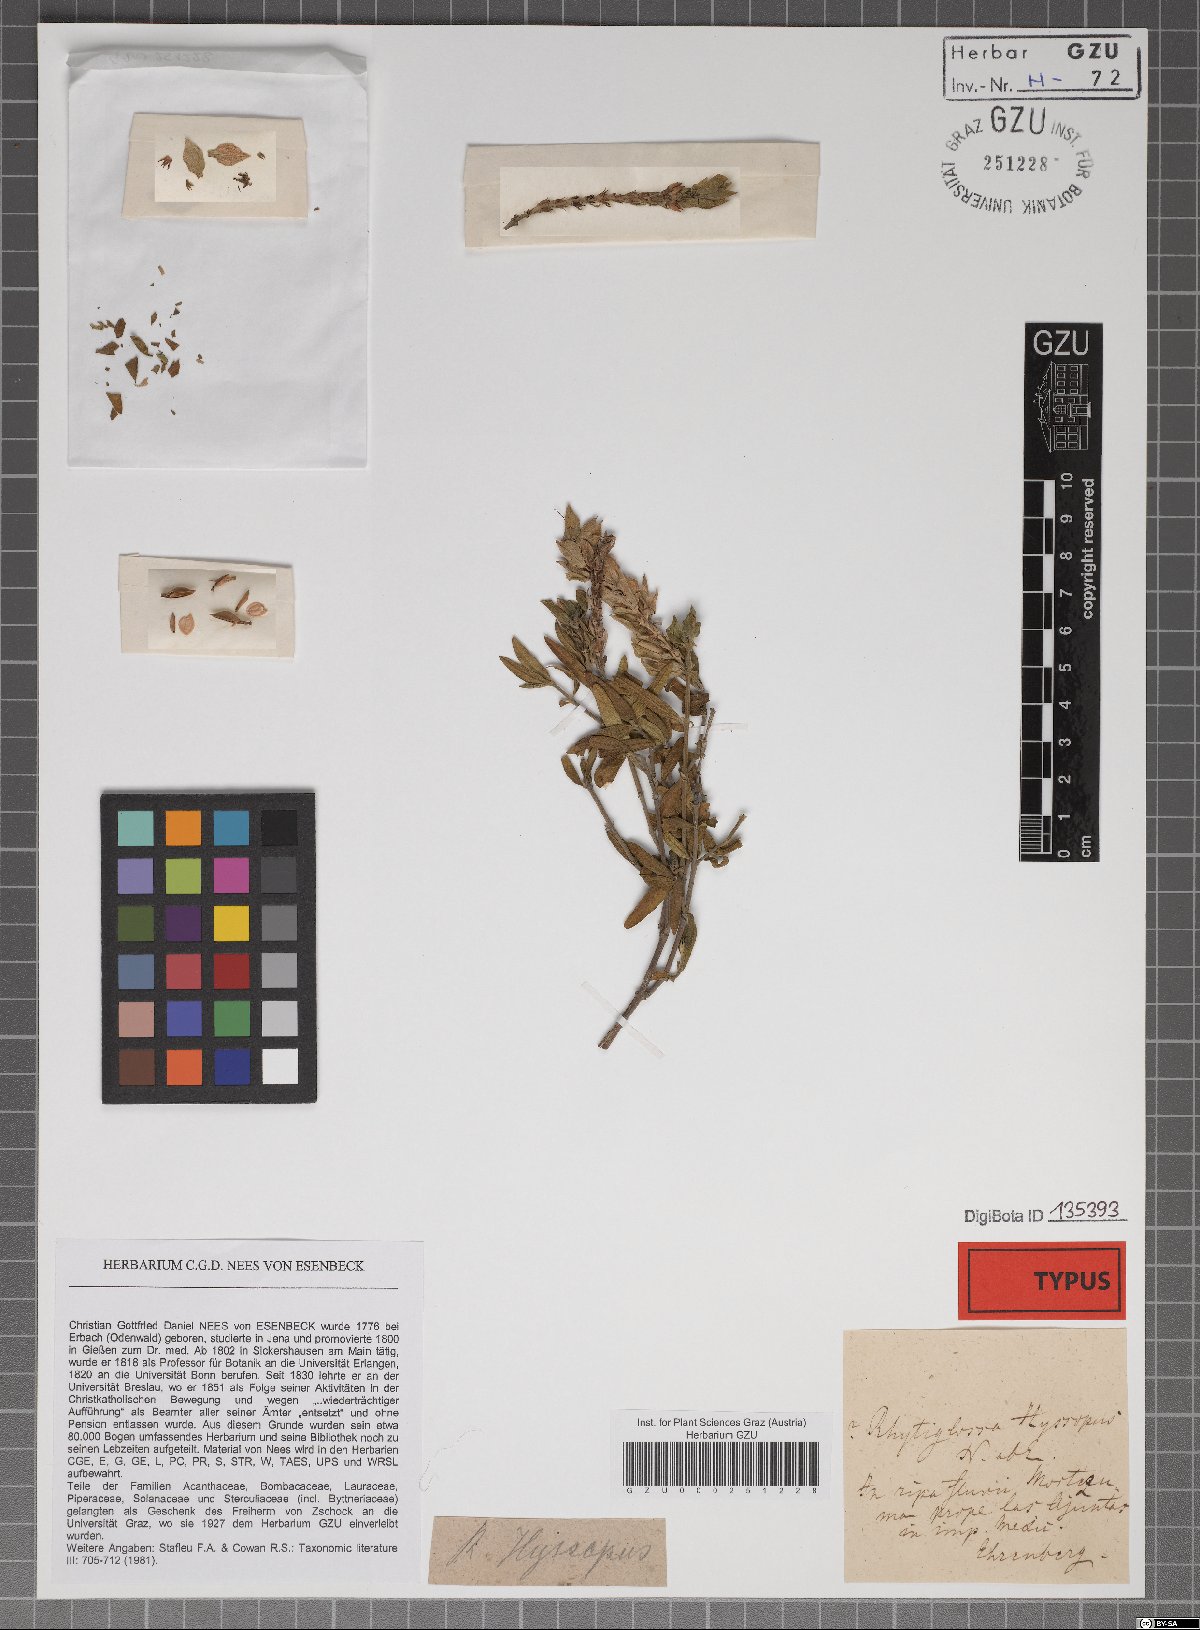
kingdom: Plantae
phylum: Tracheophyta
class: Magnoliopsida
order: Lamiales
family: Acanthaceae
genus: Mirandea
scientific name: Mirandea hyssopus
